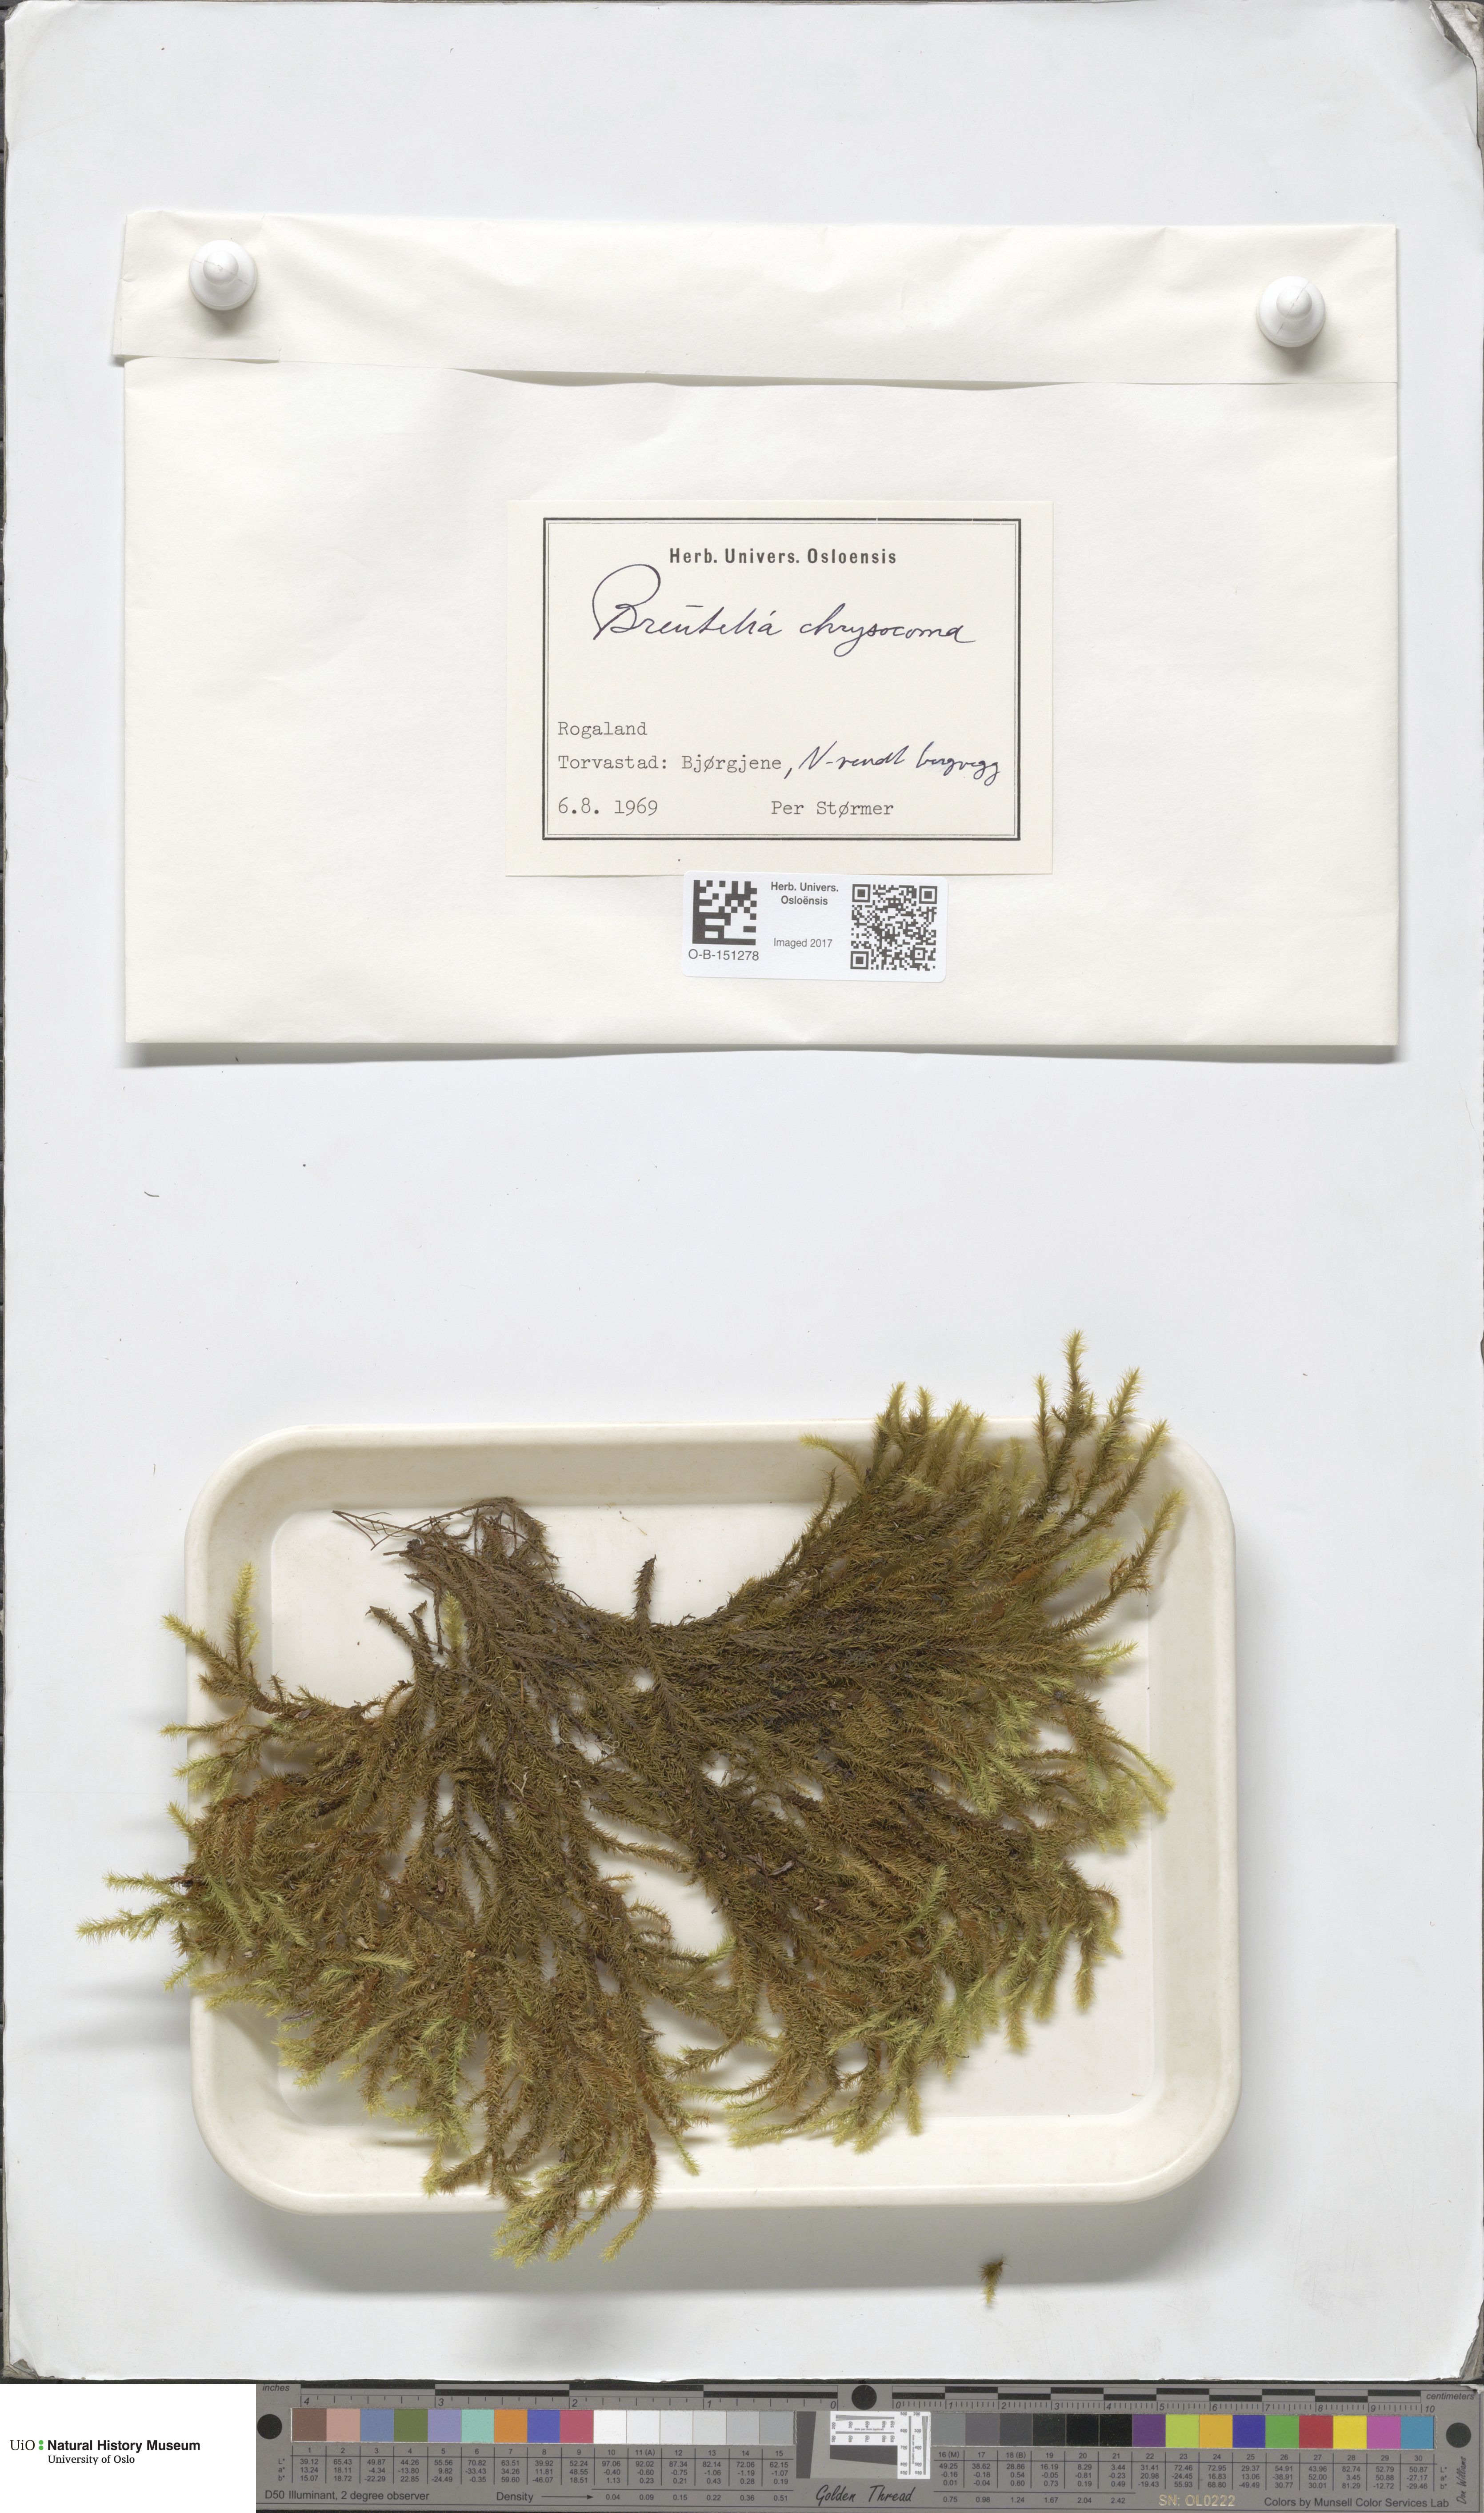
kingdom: Plantae
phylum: Bryophyta
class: Bryopsida
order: Bartramiales
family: Bartramiaceae
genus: Breutelia
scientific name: Breutelia chrysocoma
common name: Bottle-brush moss
